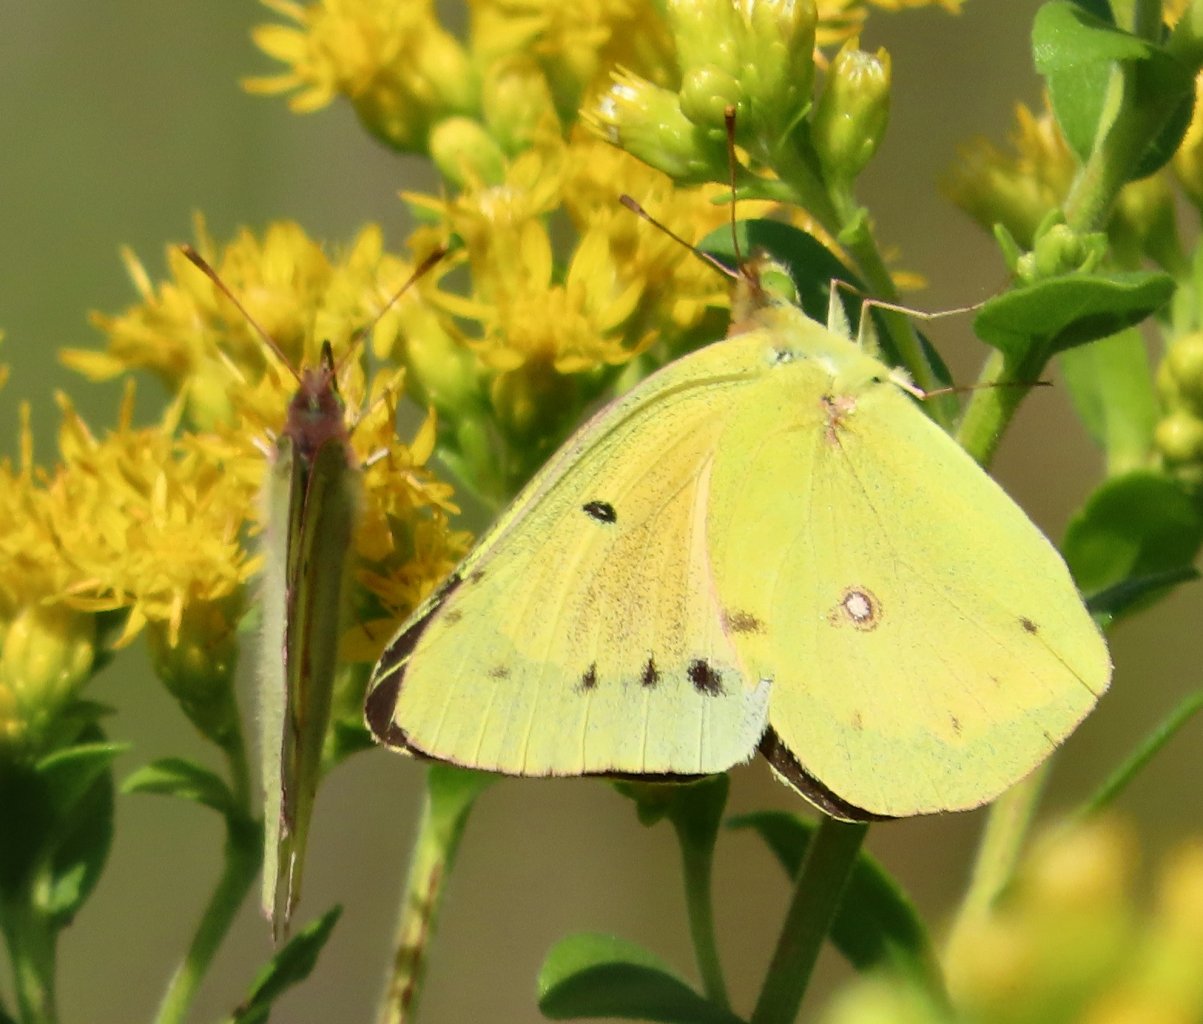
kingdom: Animalia
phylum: Arthropoda
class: Insecta
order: Lepidoptera
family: Pieridae
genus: Colias
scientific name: Colias eurytheme
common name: Orange Sulphur
